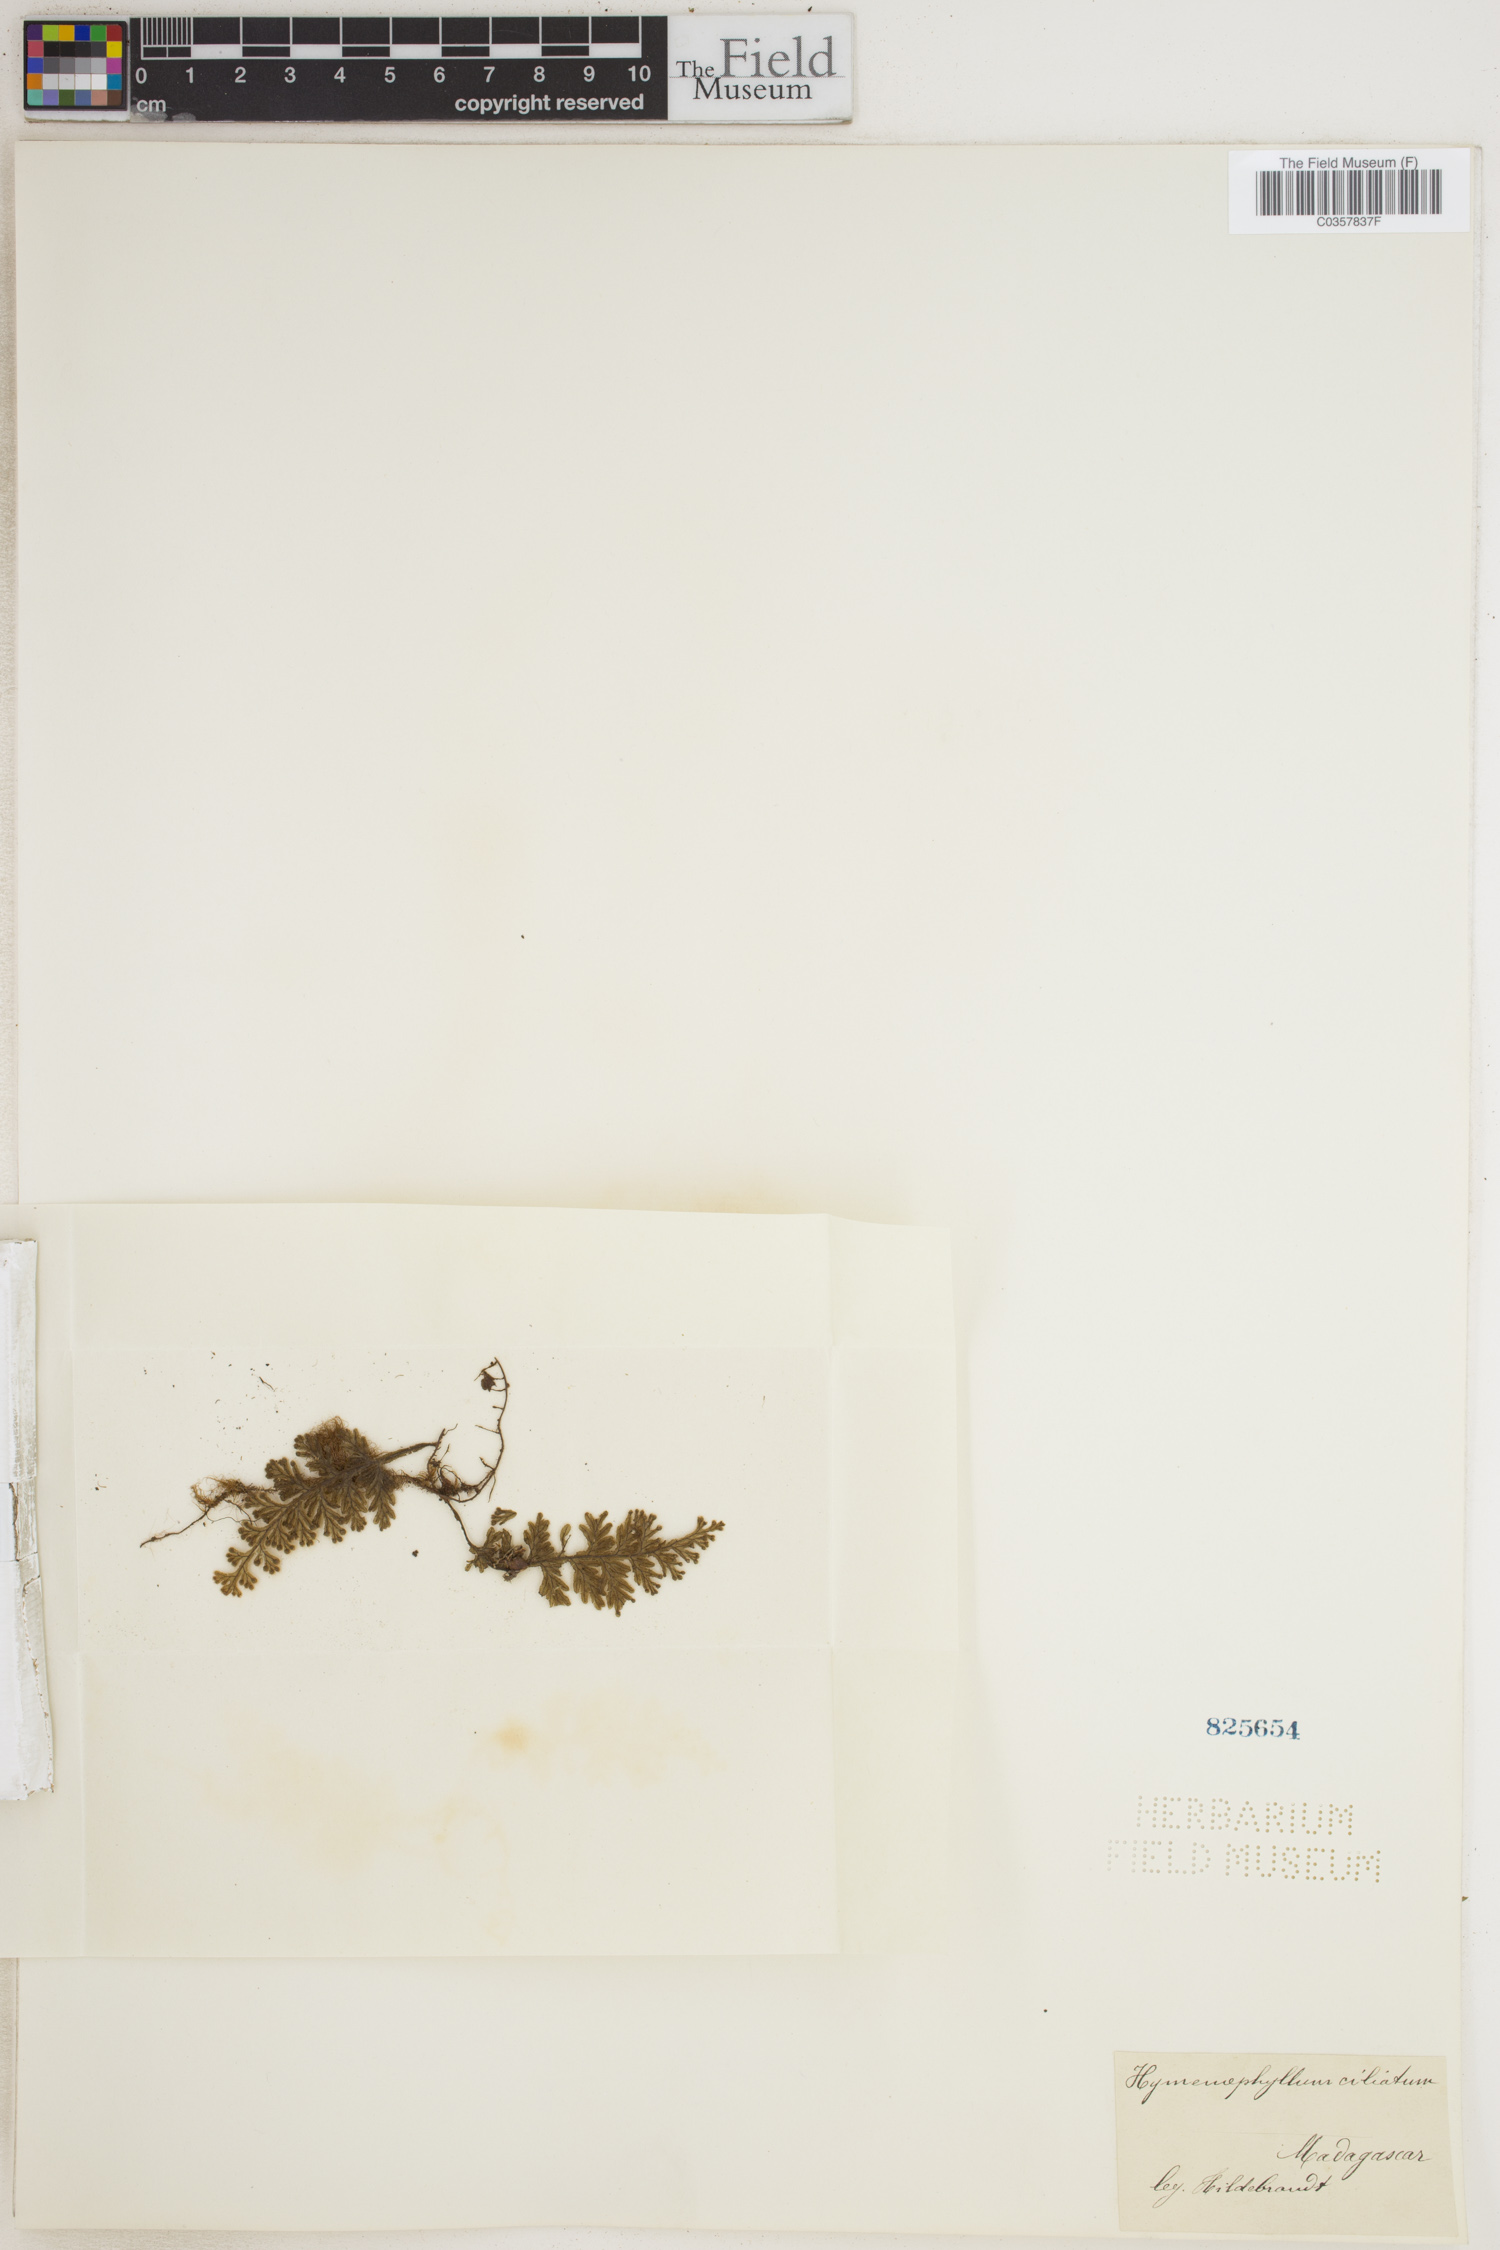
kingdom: Plantae
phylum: Tracheophyta
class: Polypodiopsida
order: Hymenophyllales
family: Hymenophyllaceae
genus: Hymenophyllum
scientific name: Hymenophyllum hirsutum
